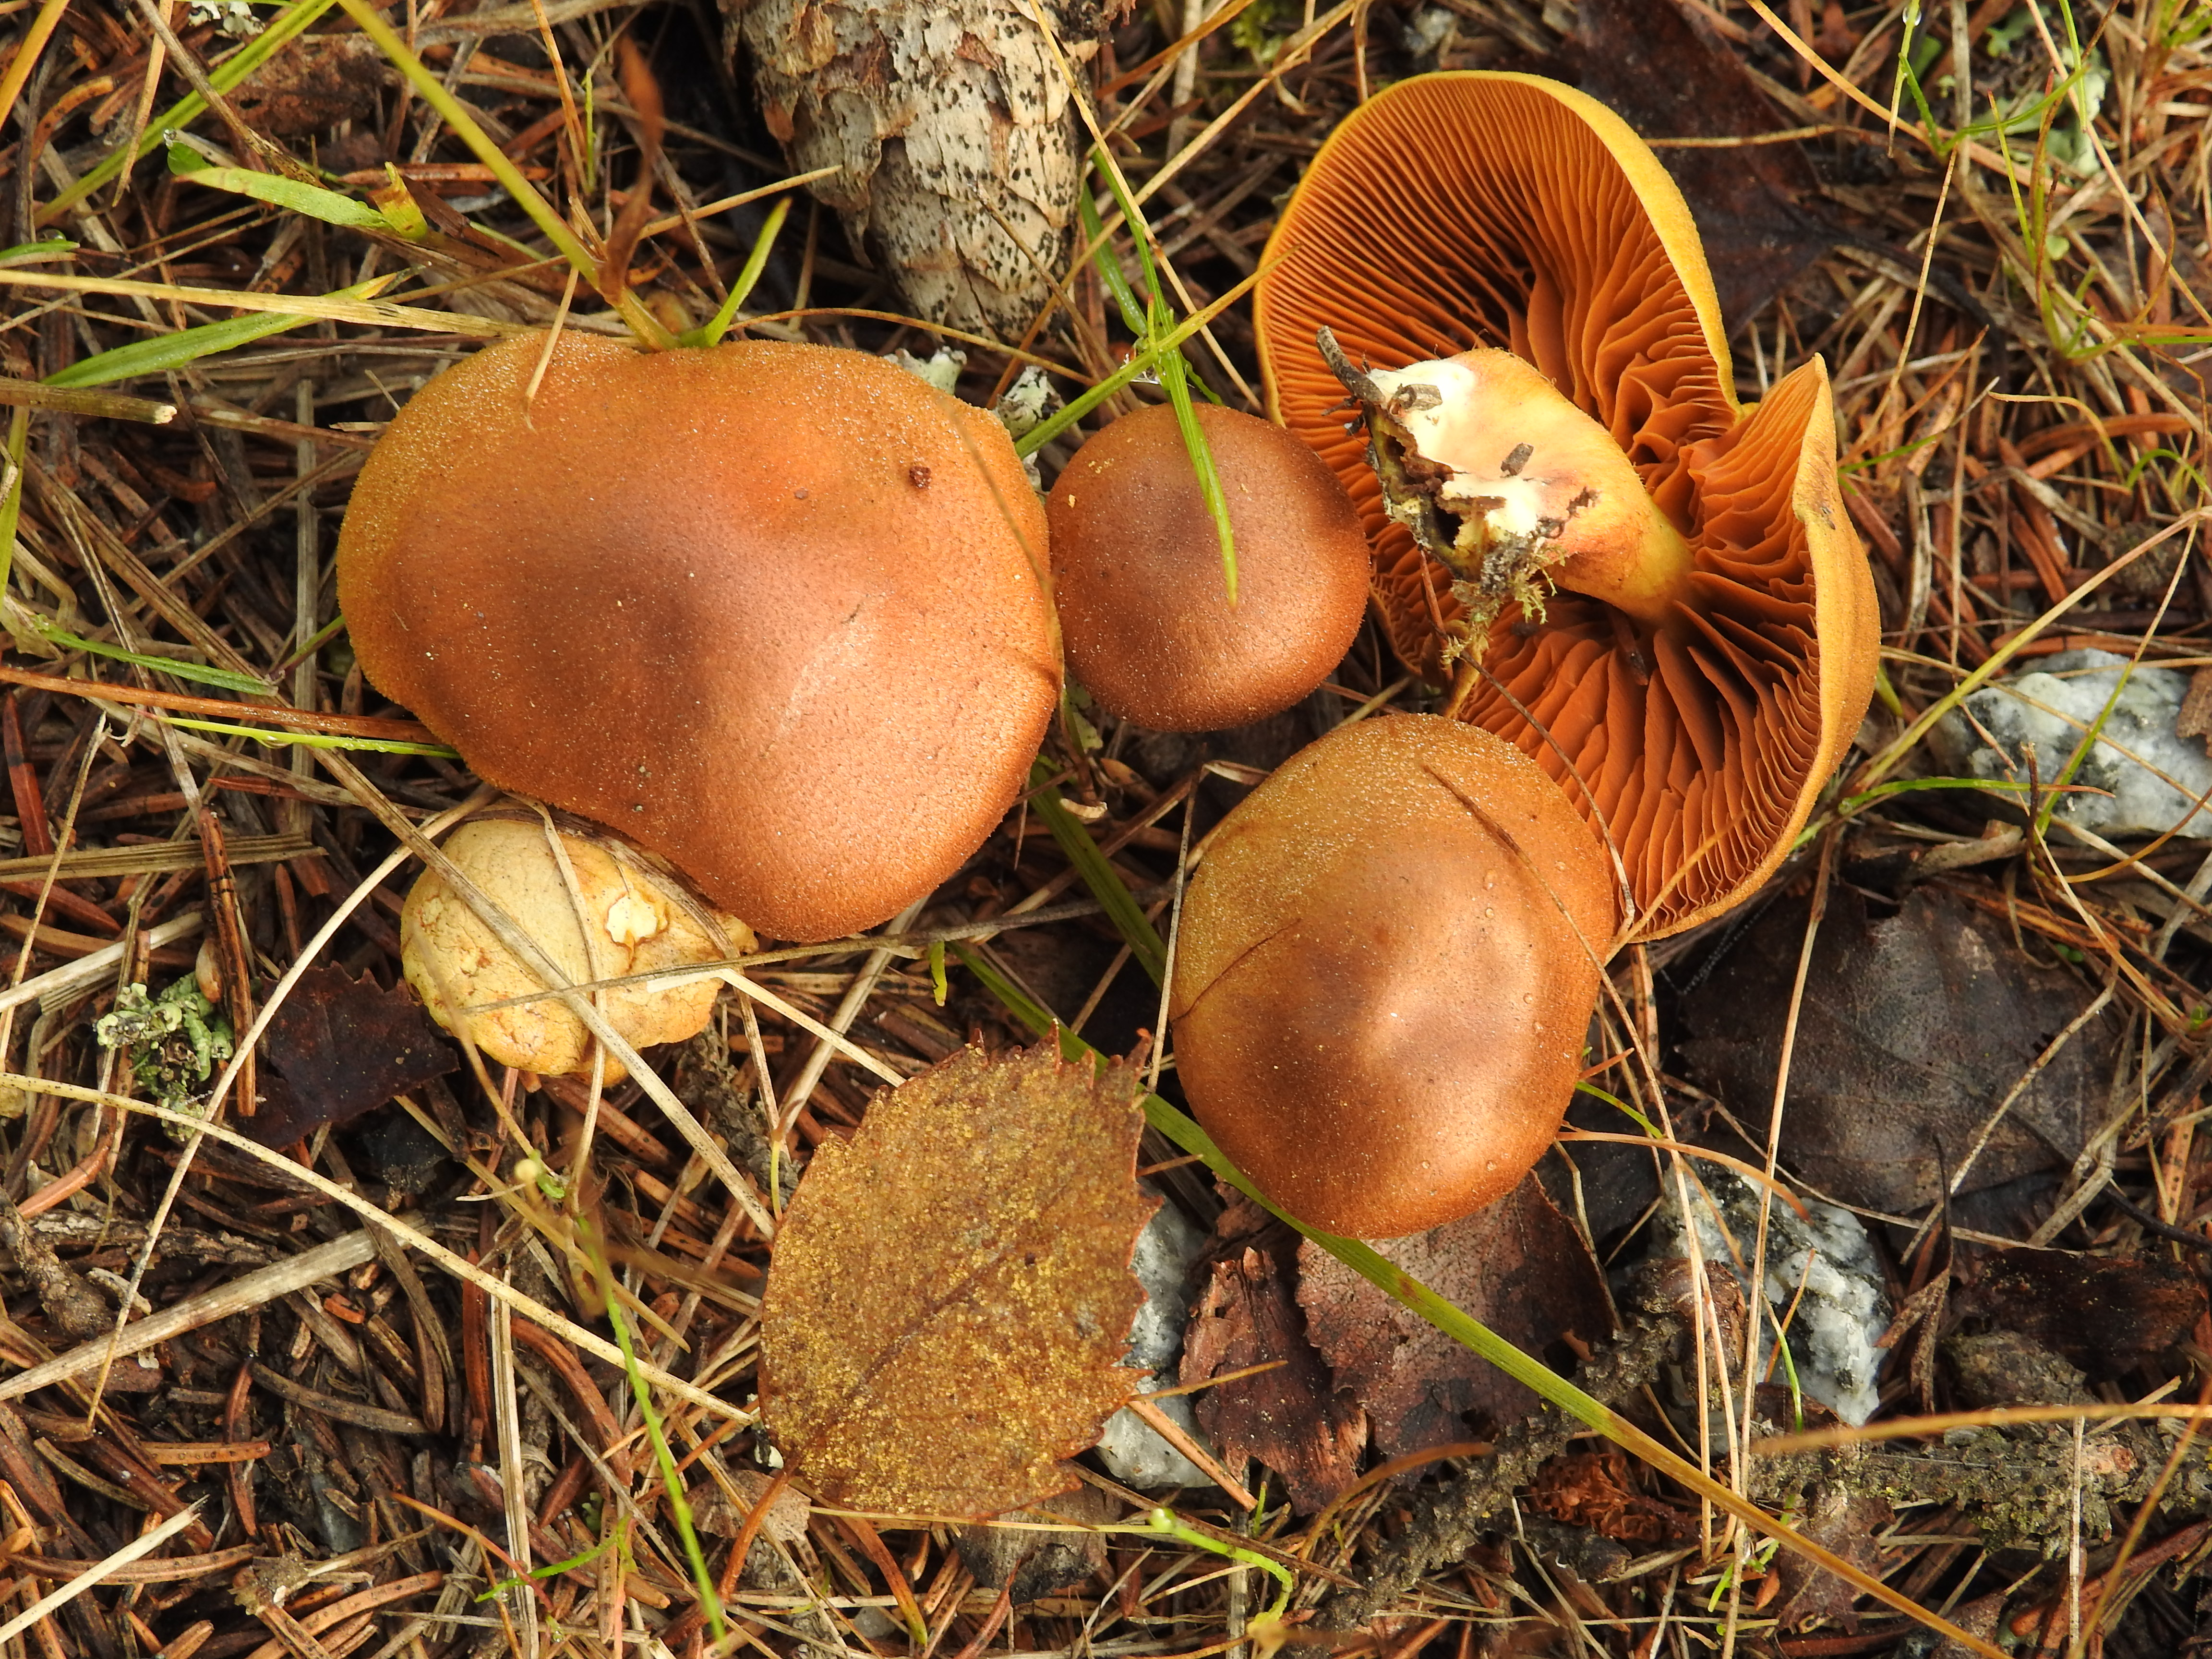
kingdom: Fungi
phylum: Basidiomycota
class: Agaricomycetes
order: Agaricales
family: Cortinariaceae
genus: Cortinarius
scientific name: Cortinarius cinnamomeus
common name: Cinnamon webcap
